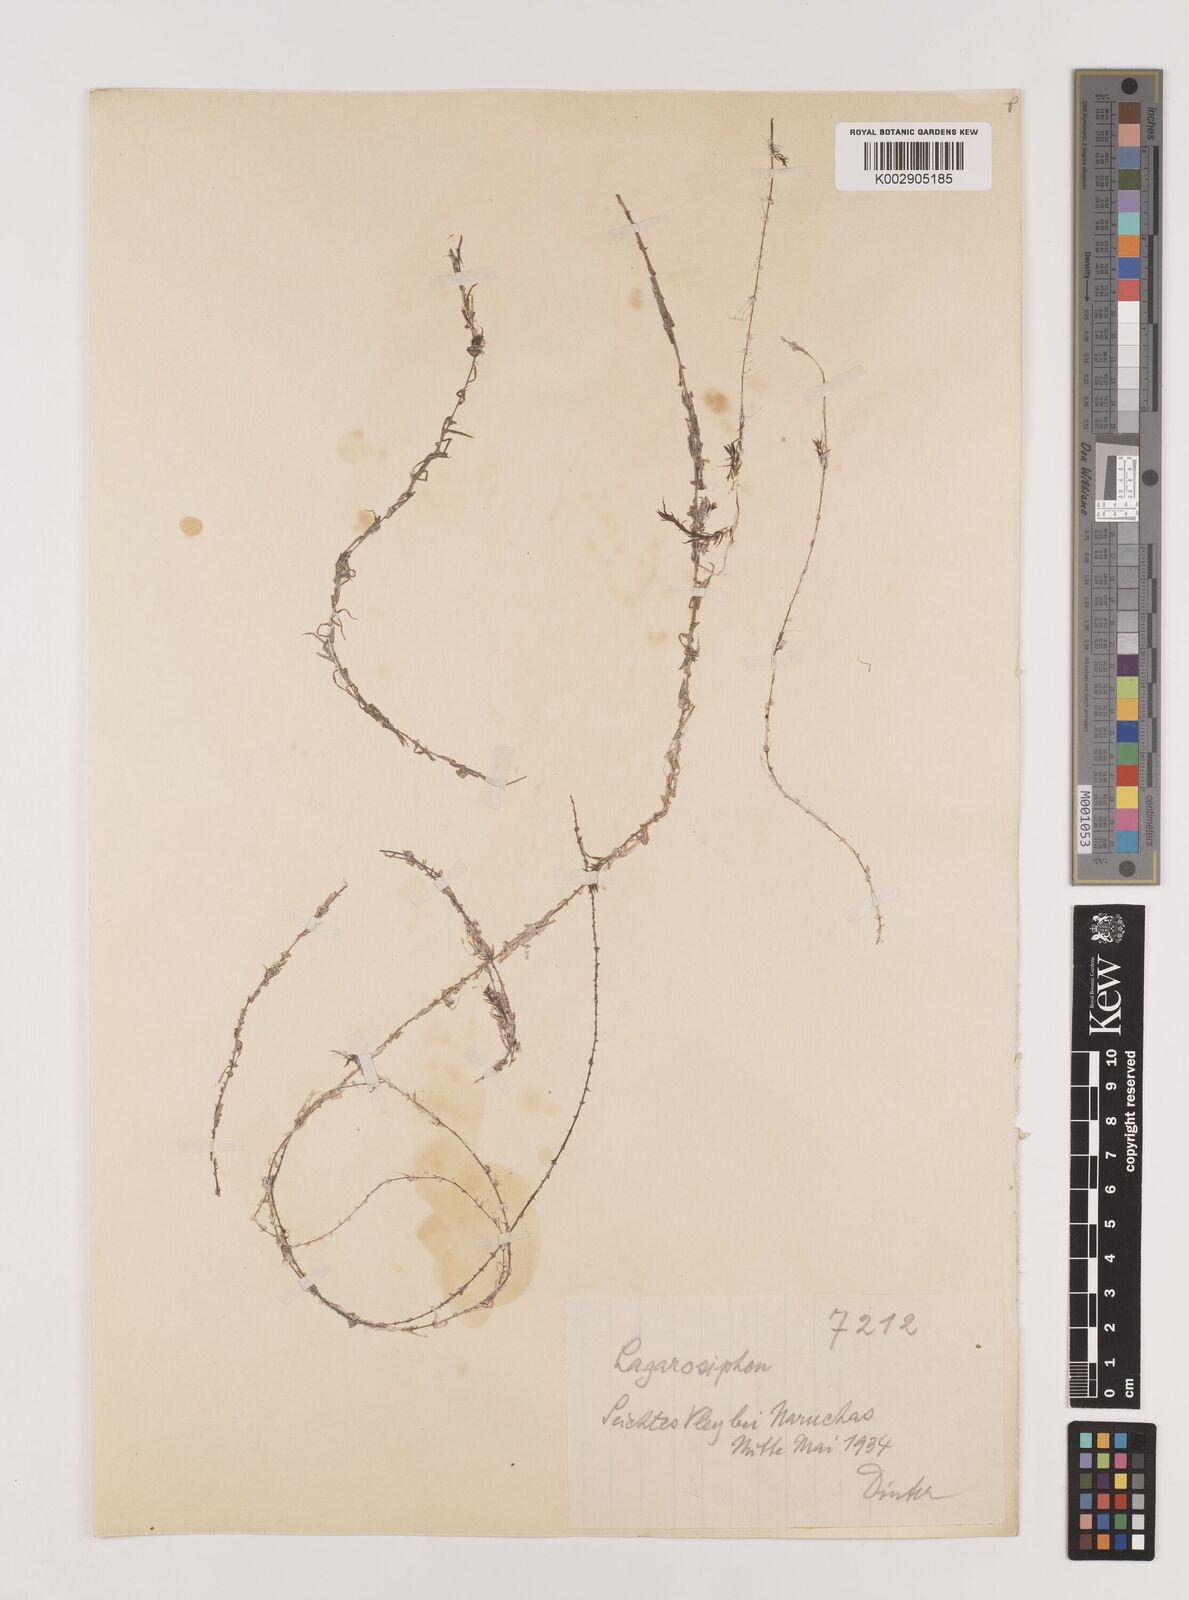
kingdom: Plantae
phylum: Tracheophyta
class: Liliopsida
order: Alismatales
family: Hydrocharitaceae
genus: Lagarosiphon
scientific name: Lagarosiphon
